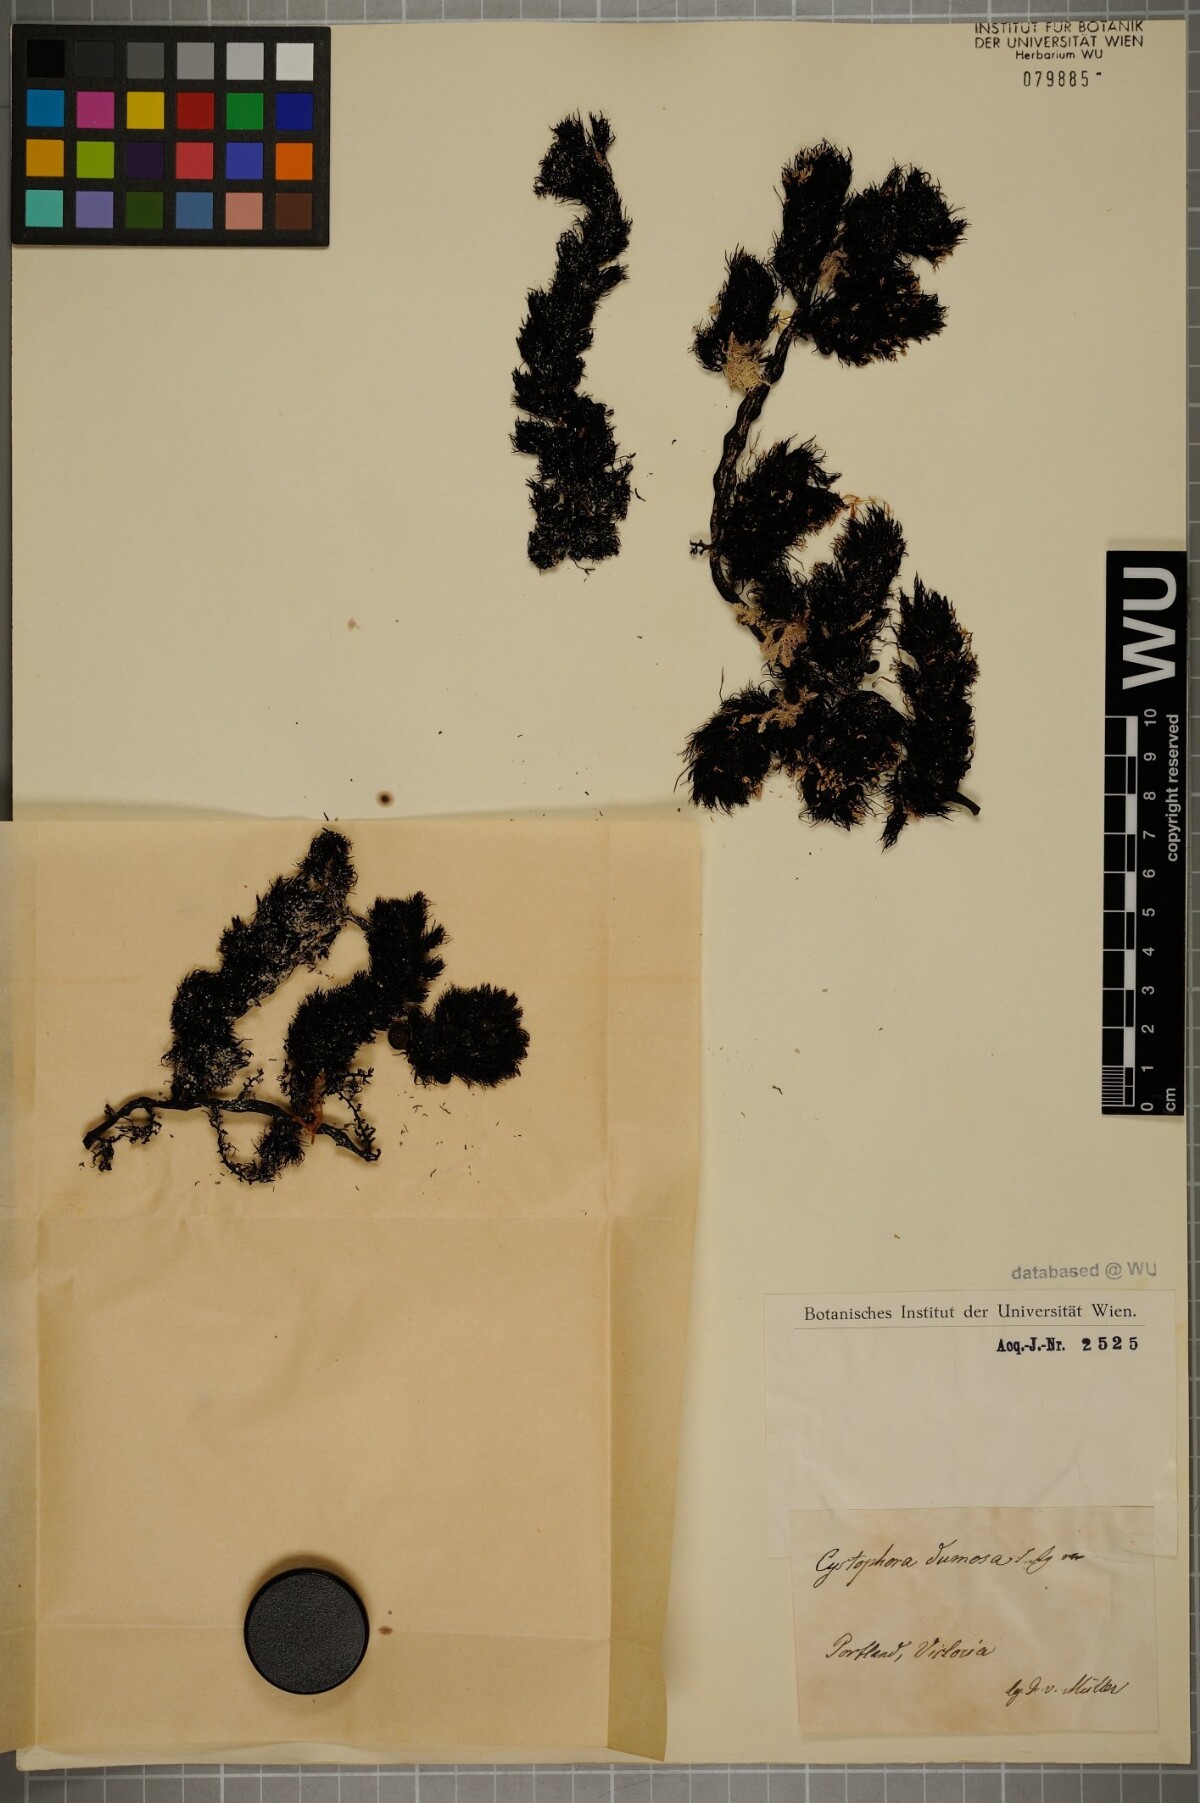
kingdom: Chromista
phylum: Ochrophyta
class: Phaeophyceae
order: Fucales
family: Sargassaceae
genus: Cystophora
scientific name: Cystophora
